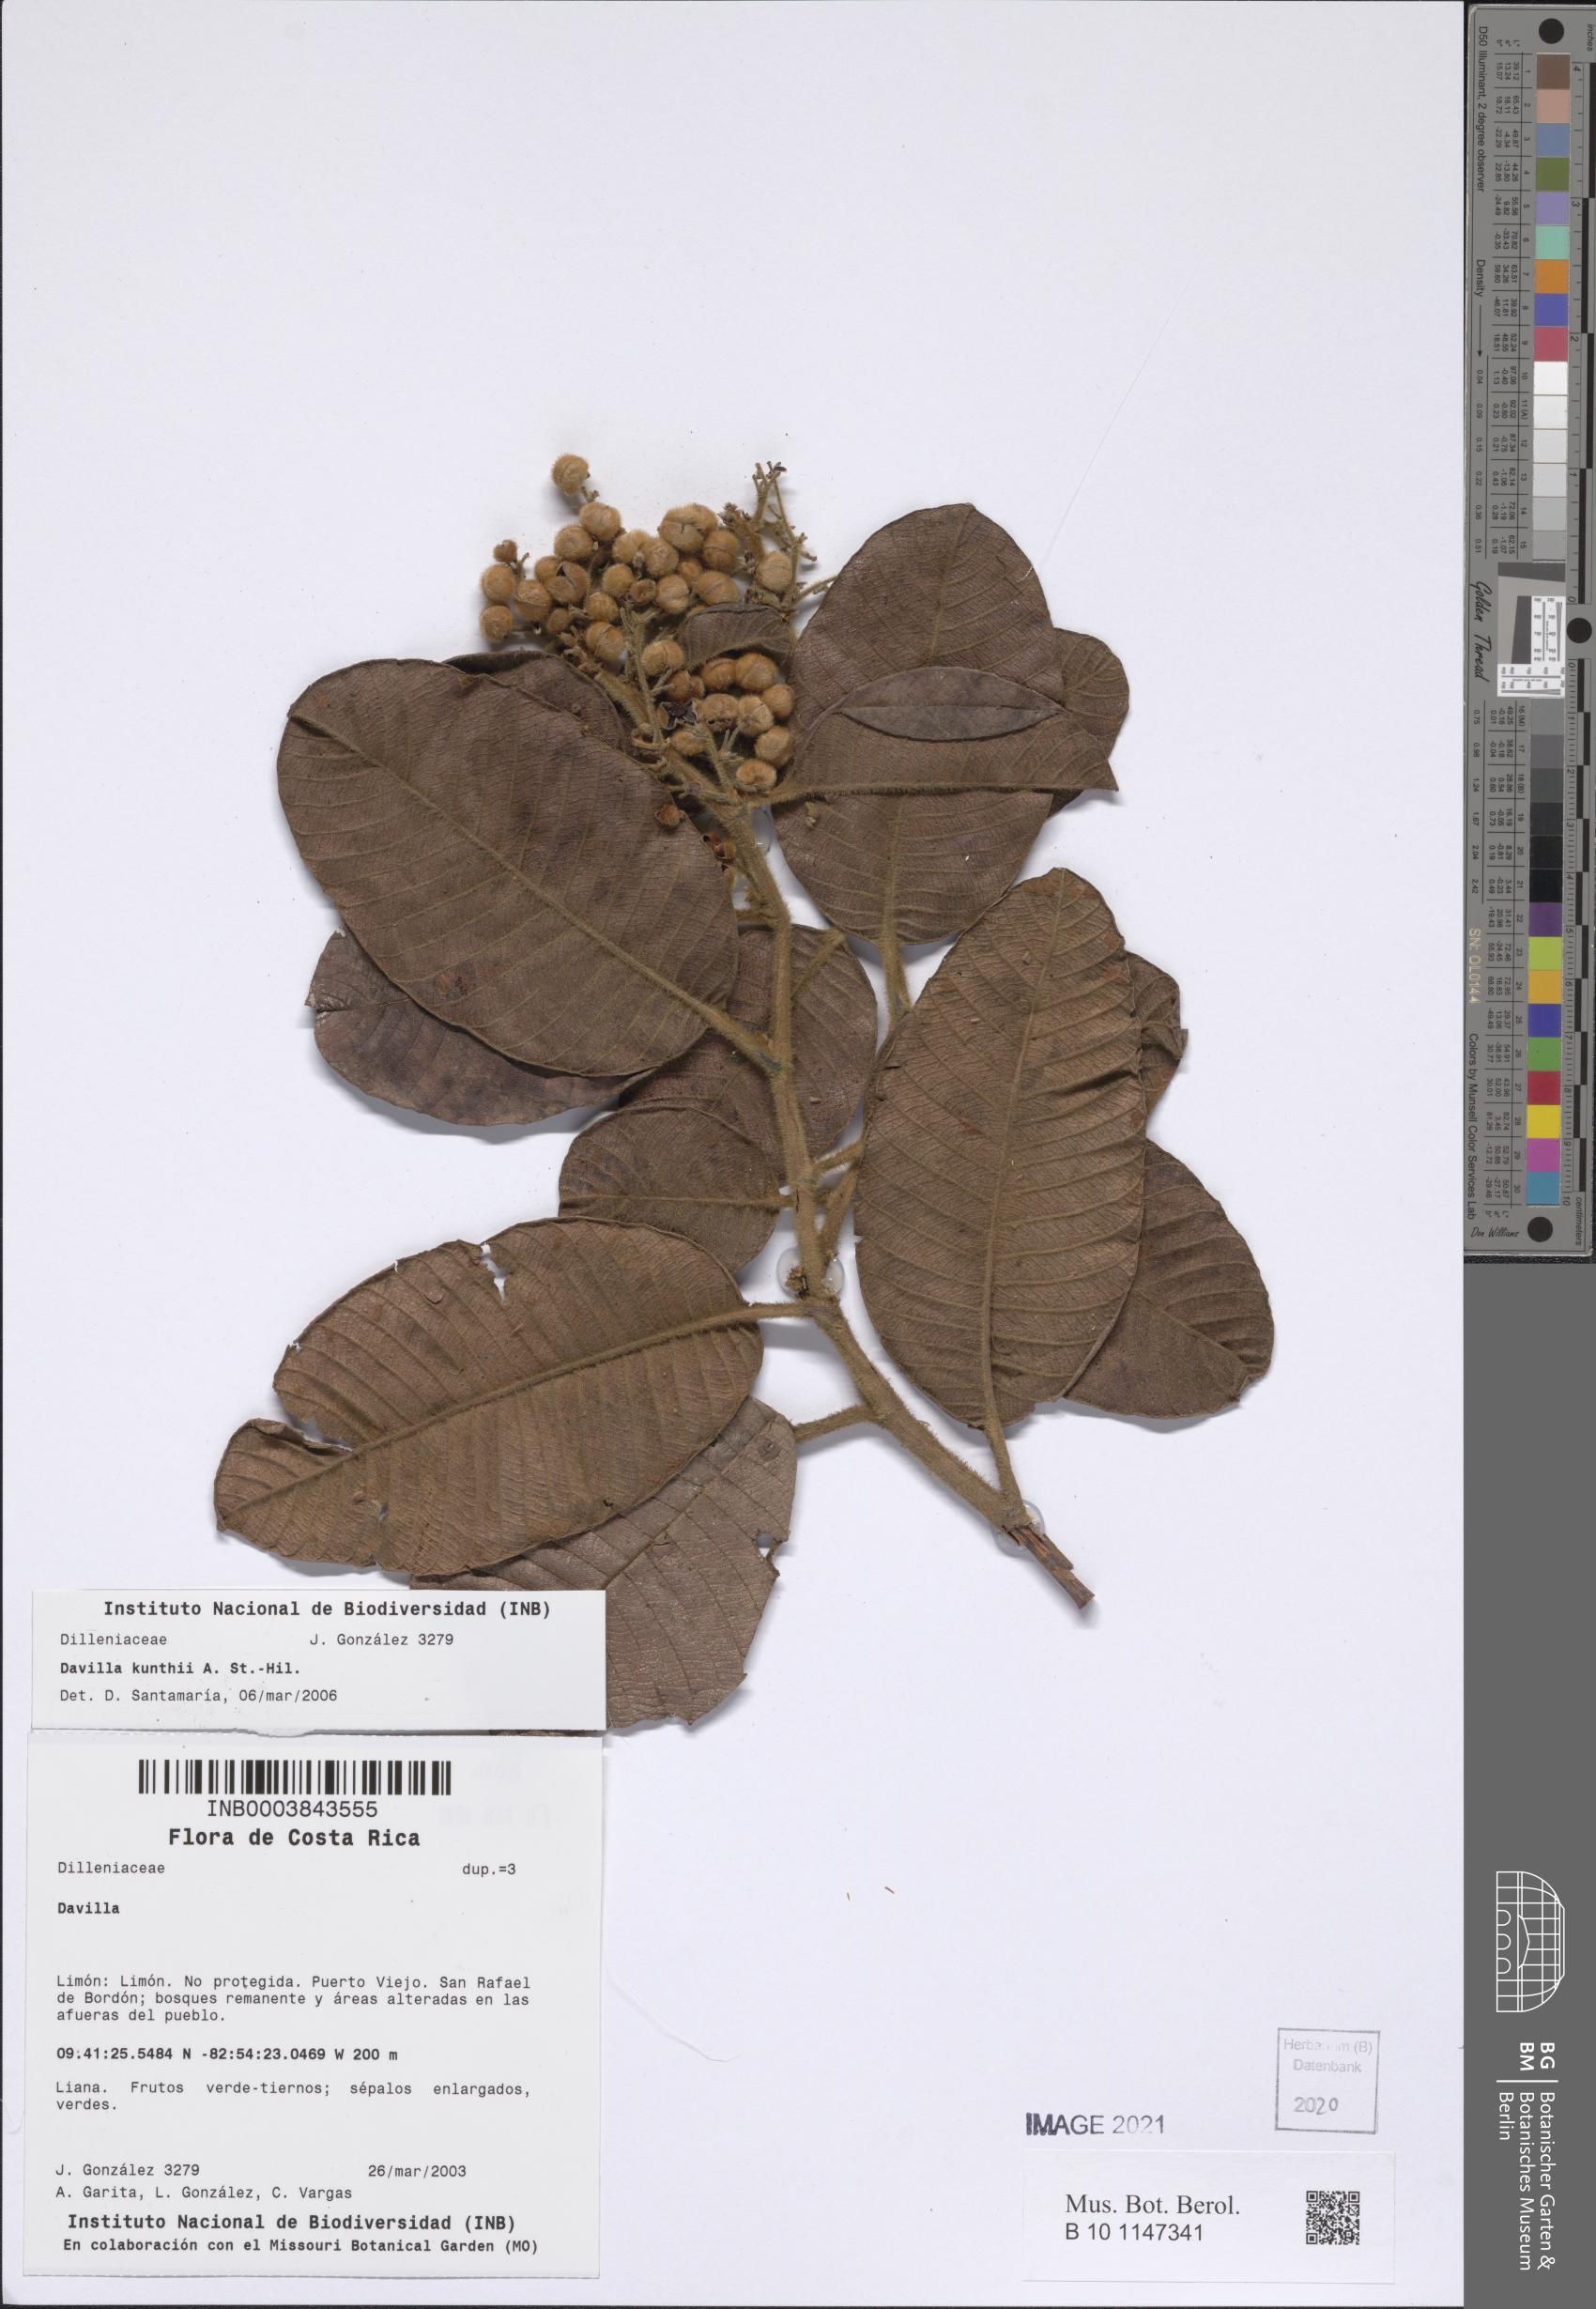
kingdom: Plantae
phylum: Tracheophyta
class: Magnoliopsida
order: Dilleniales
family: Dilleniaceae
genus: Davilla
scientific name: Davilla kunthii
